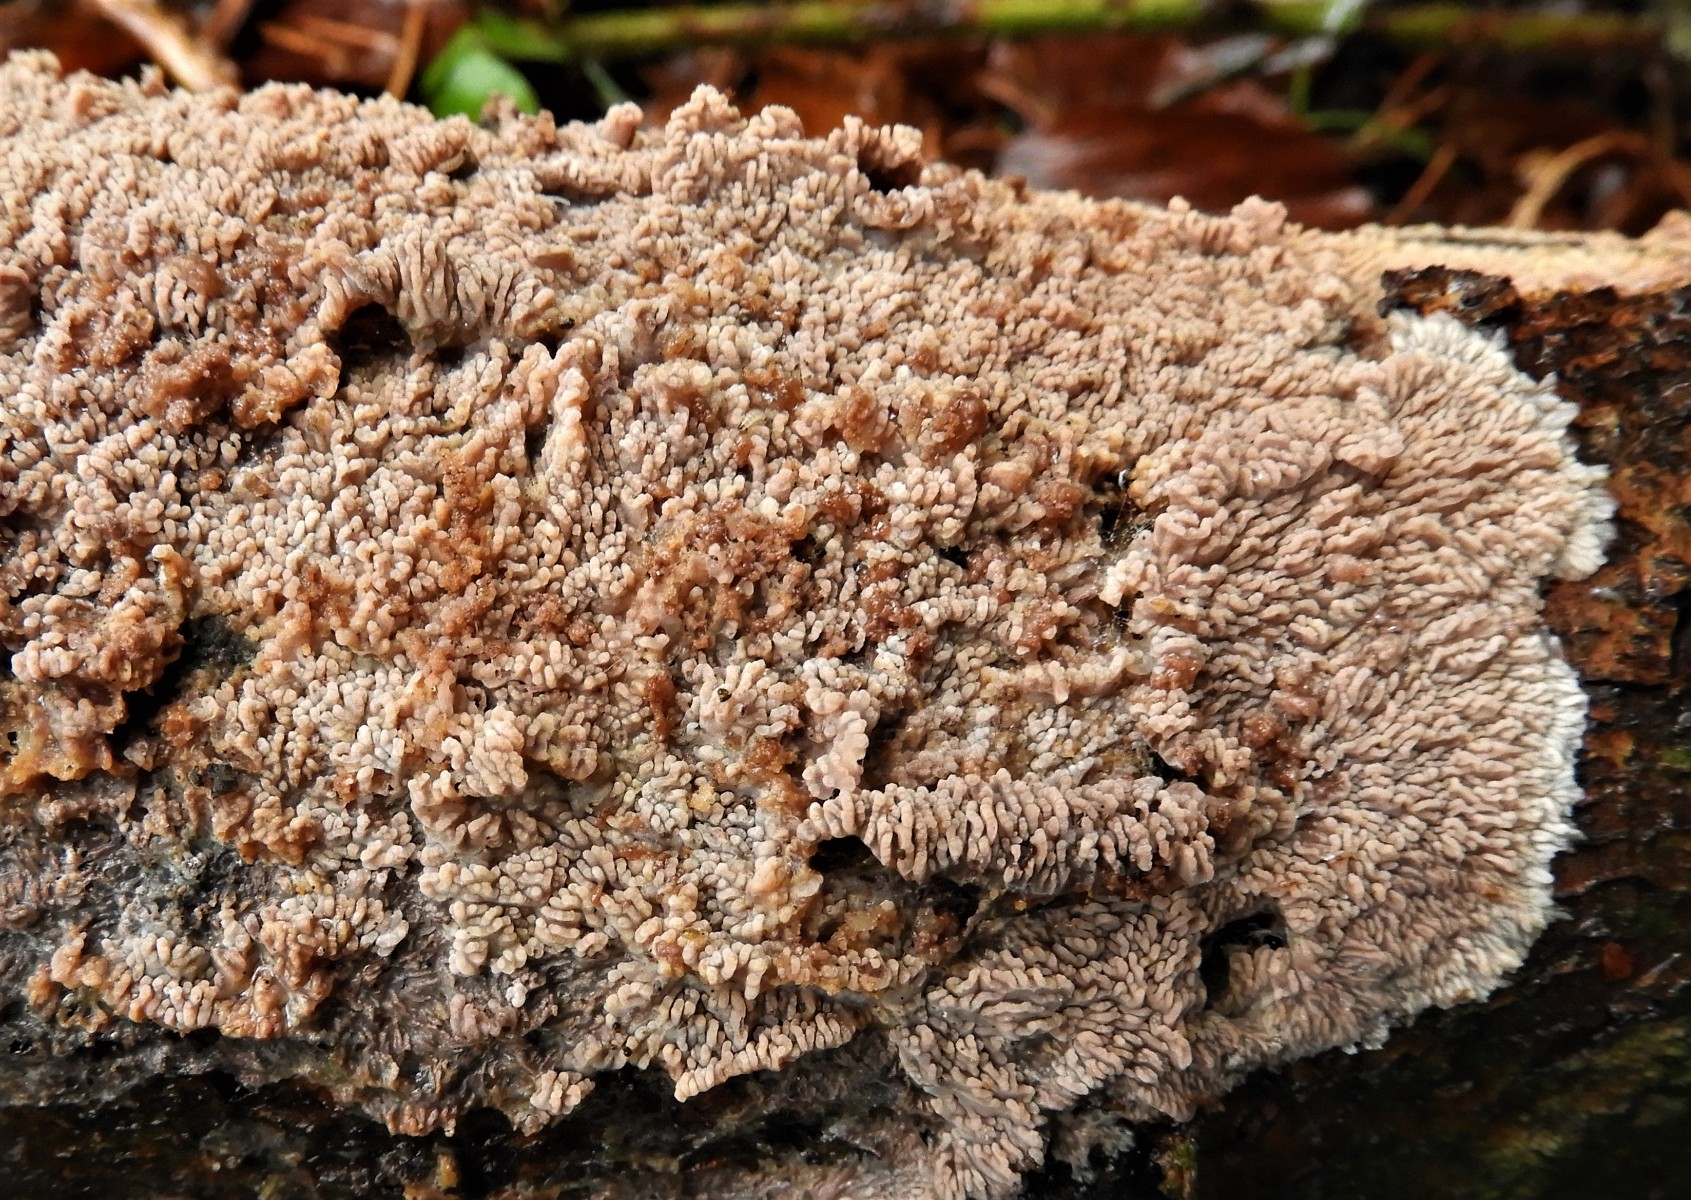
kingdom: Fungi
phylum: Basidiomycota
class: Agaricomycetes
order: Polyporales
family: Meruliaceae
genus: Phlebia
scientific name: Phlebia radiata
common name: stråle-åresvamp
